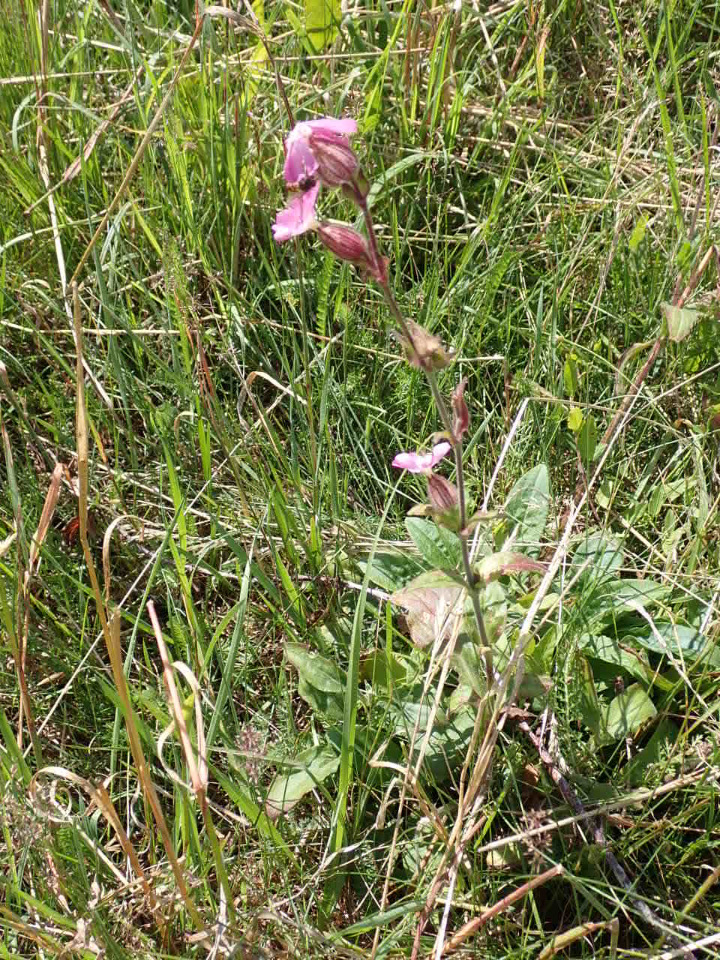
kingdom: Plantae
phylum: Tracheophyta
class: Magnoliopsida
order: Caryophyllales
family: Caryophyllaceae
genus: Silene
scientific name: Silene dioica
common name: Dagpragtstjerne
